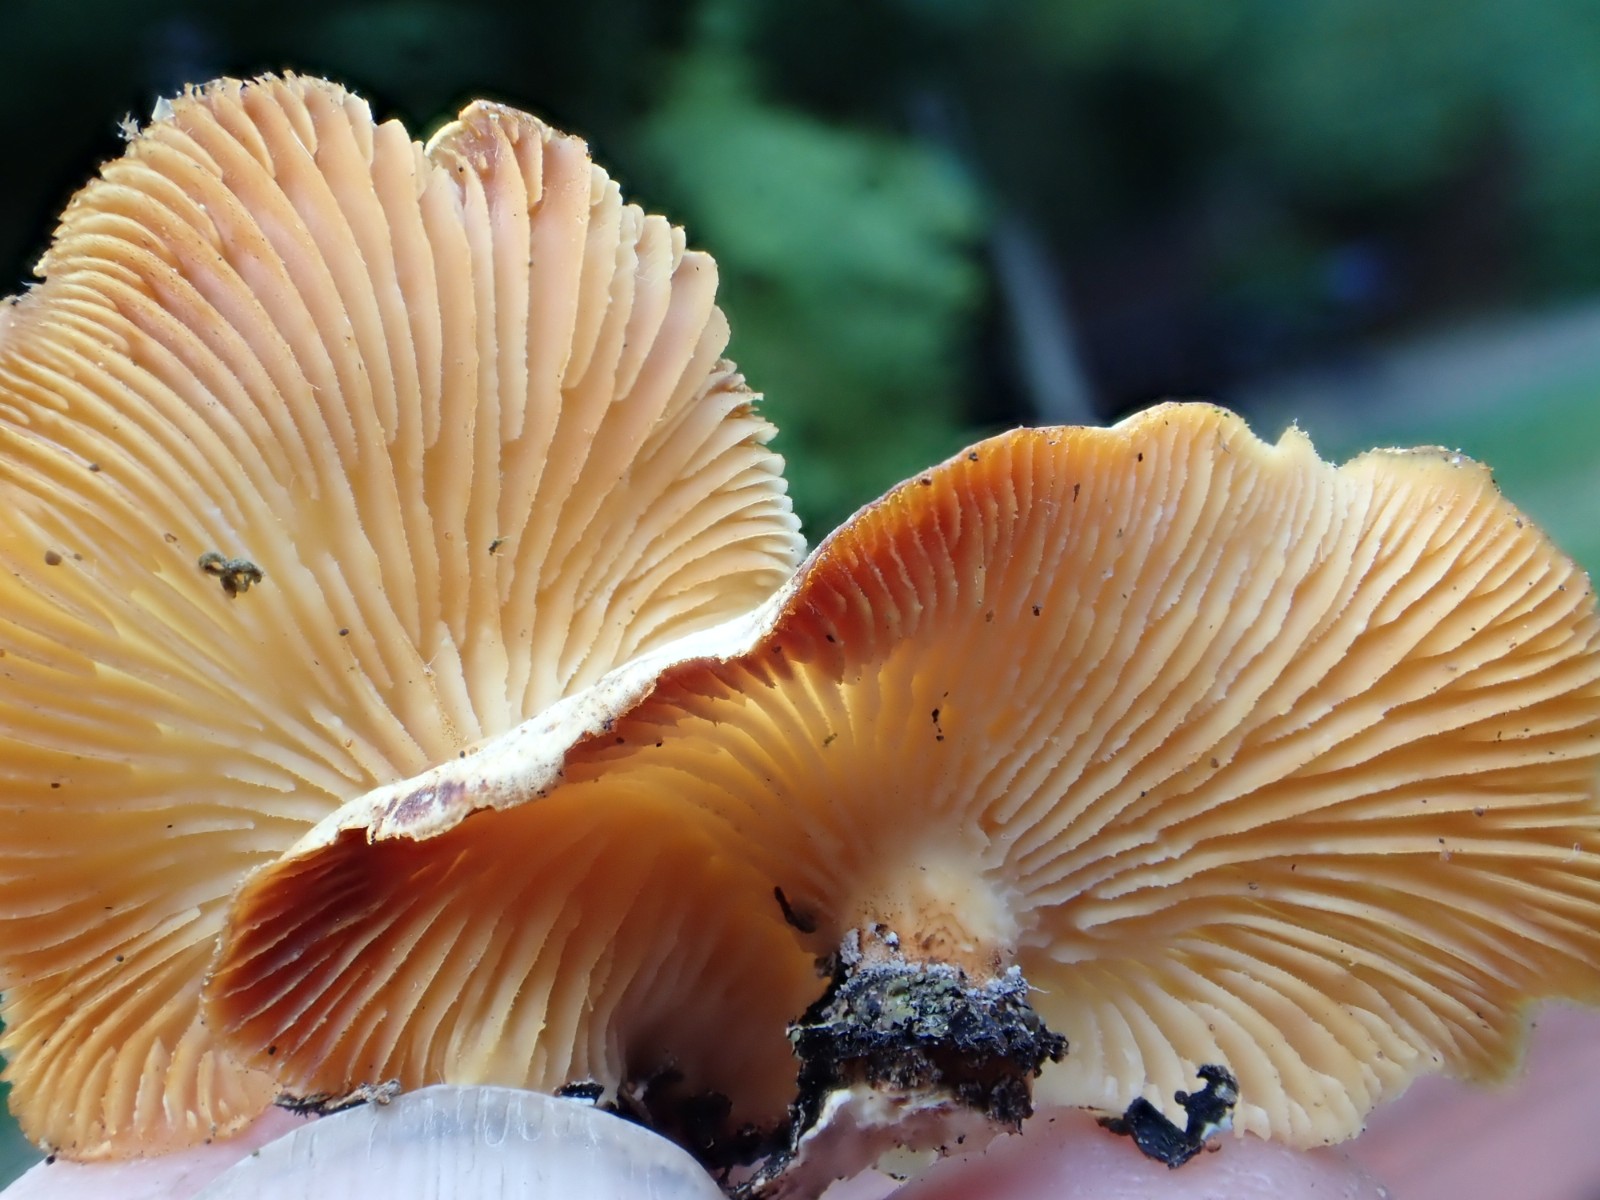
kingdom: Fungi
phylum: Basidiomycota
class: Agaricomycetes
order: Polyporales
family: Polyporaceae
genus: Neofavolus
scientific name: Neofavolus suavissimus
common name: anishat
